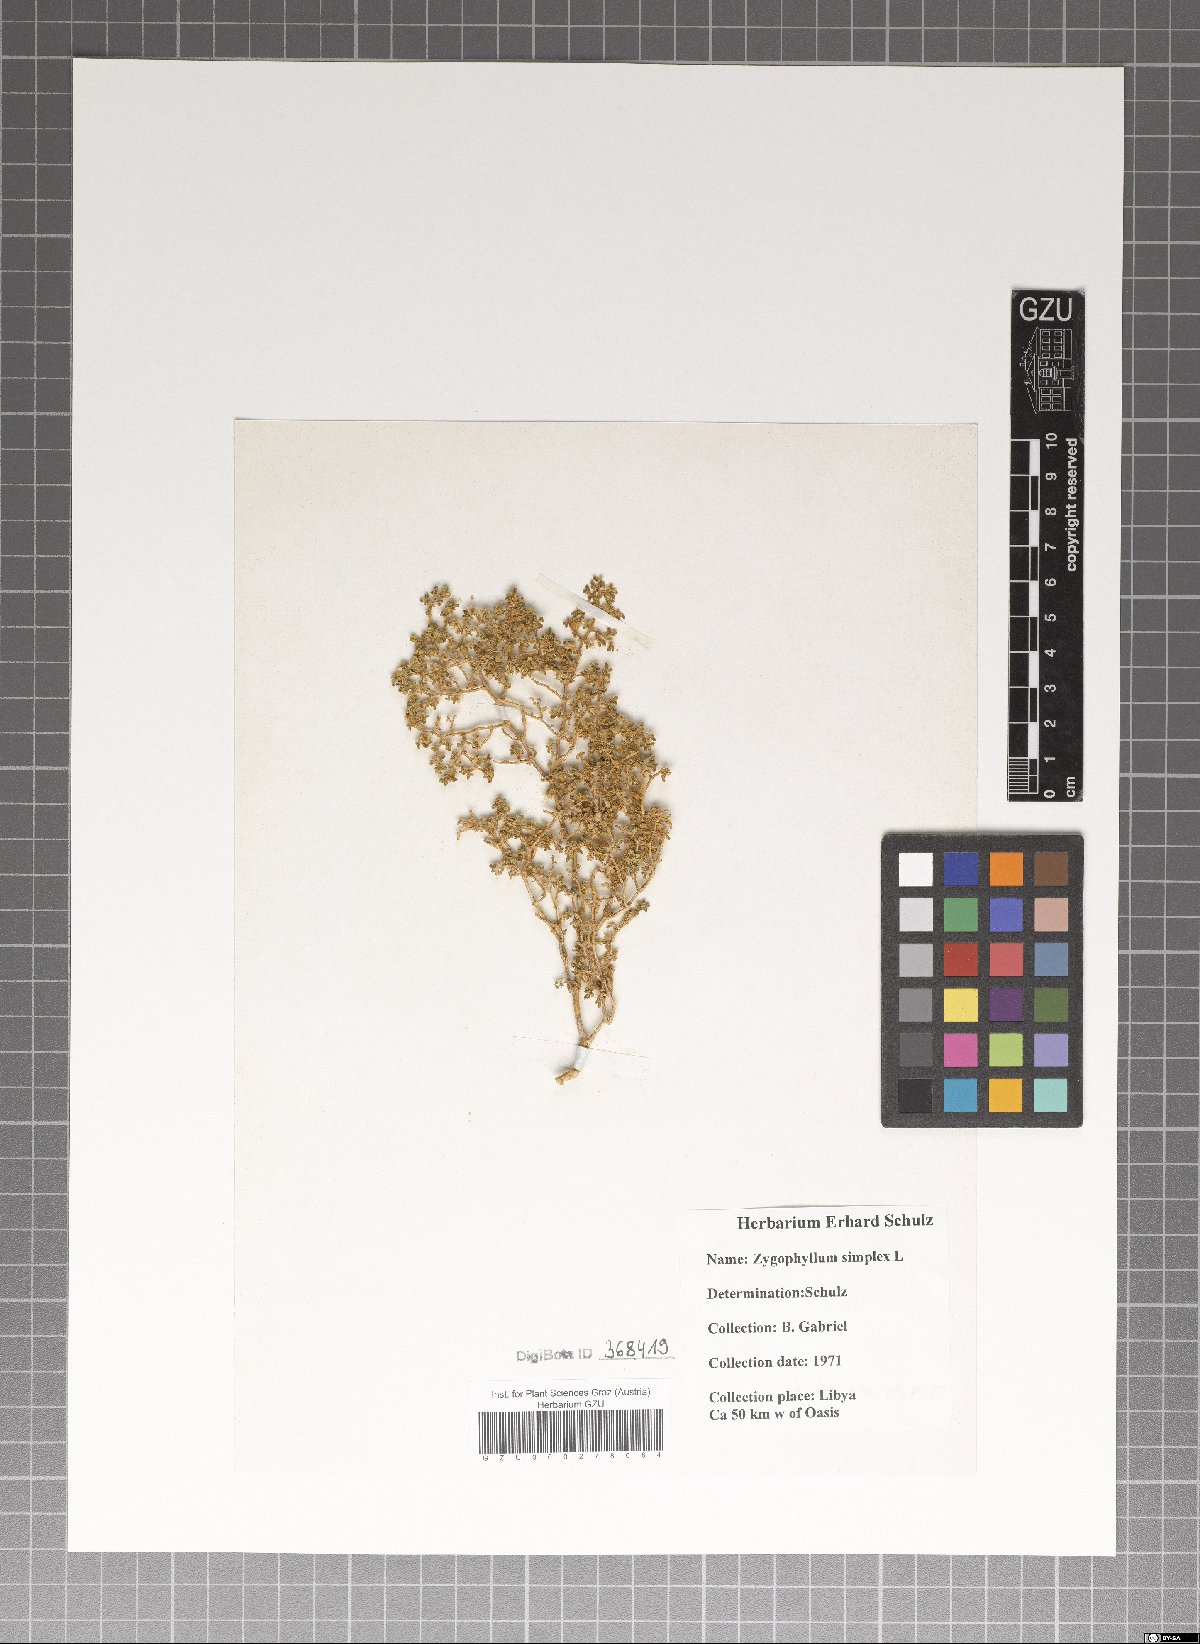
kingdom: Plantae
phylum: Tracheophyta
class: Magnoliopsida
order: Zygophyllales
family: Zygophyllaceae
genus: Tetraena
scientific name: Tetraena simplex
